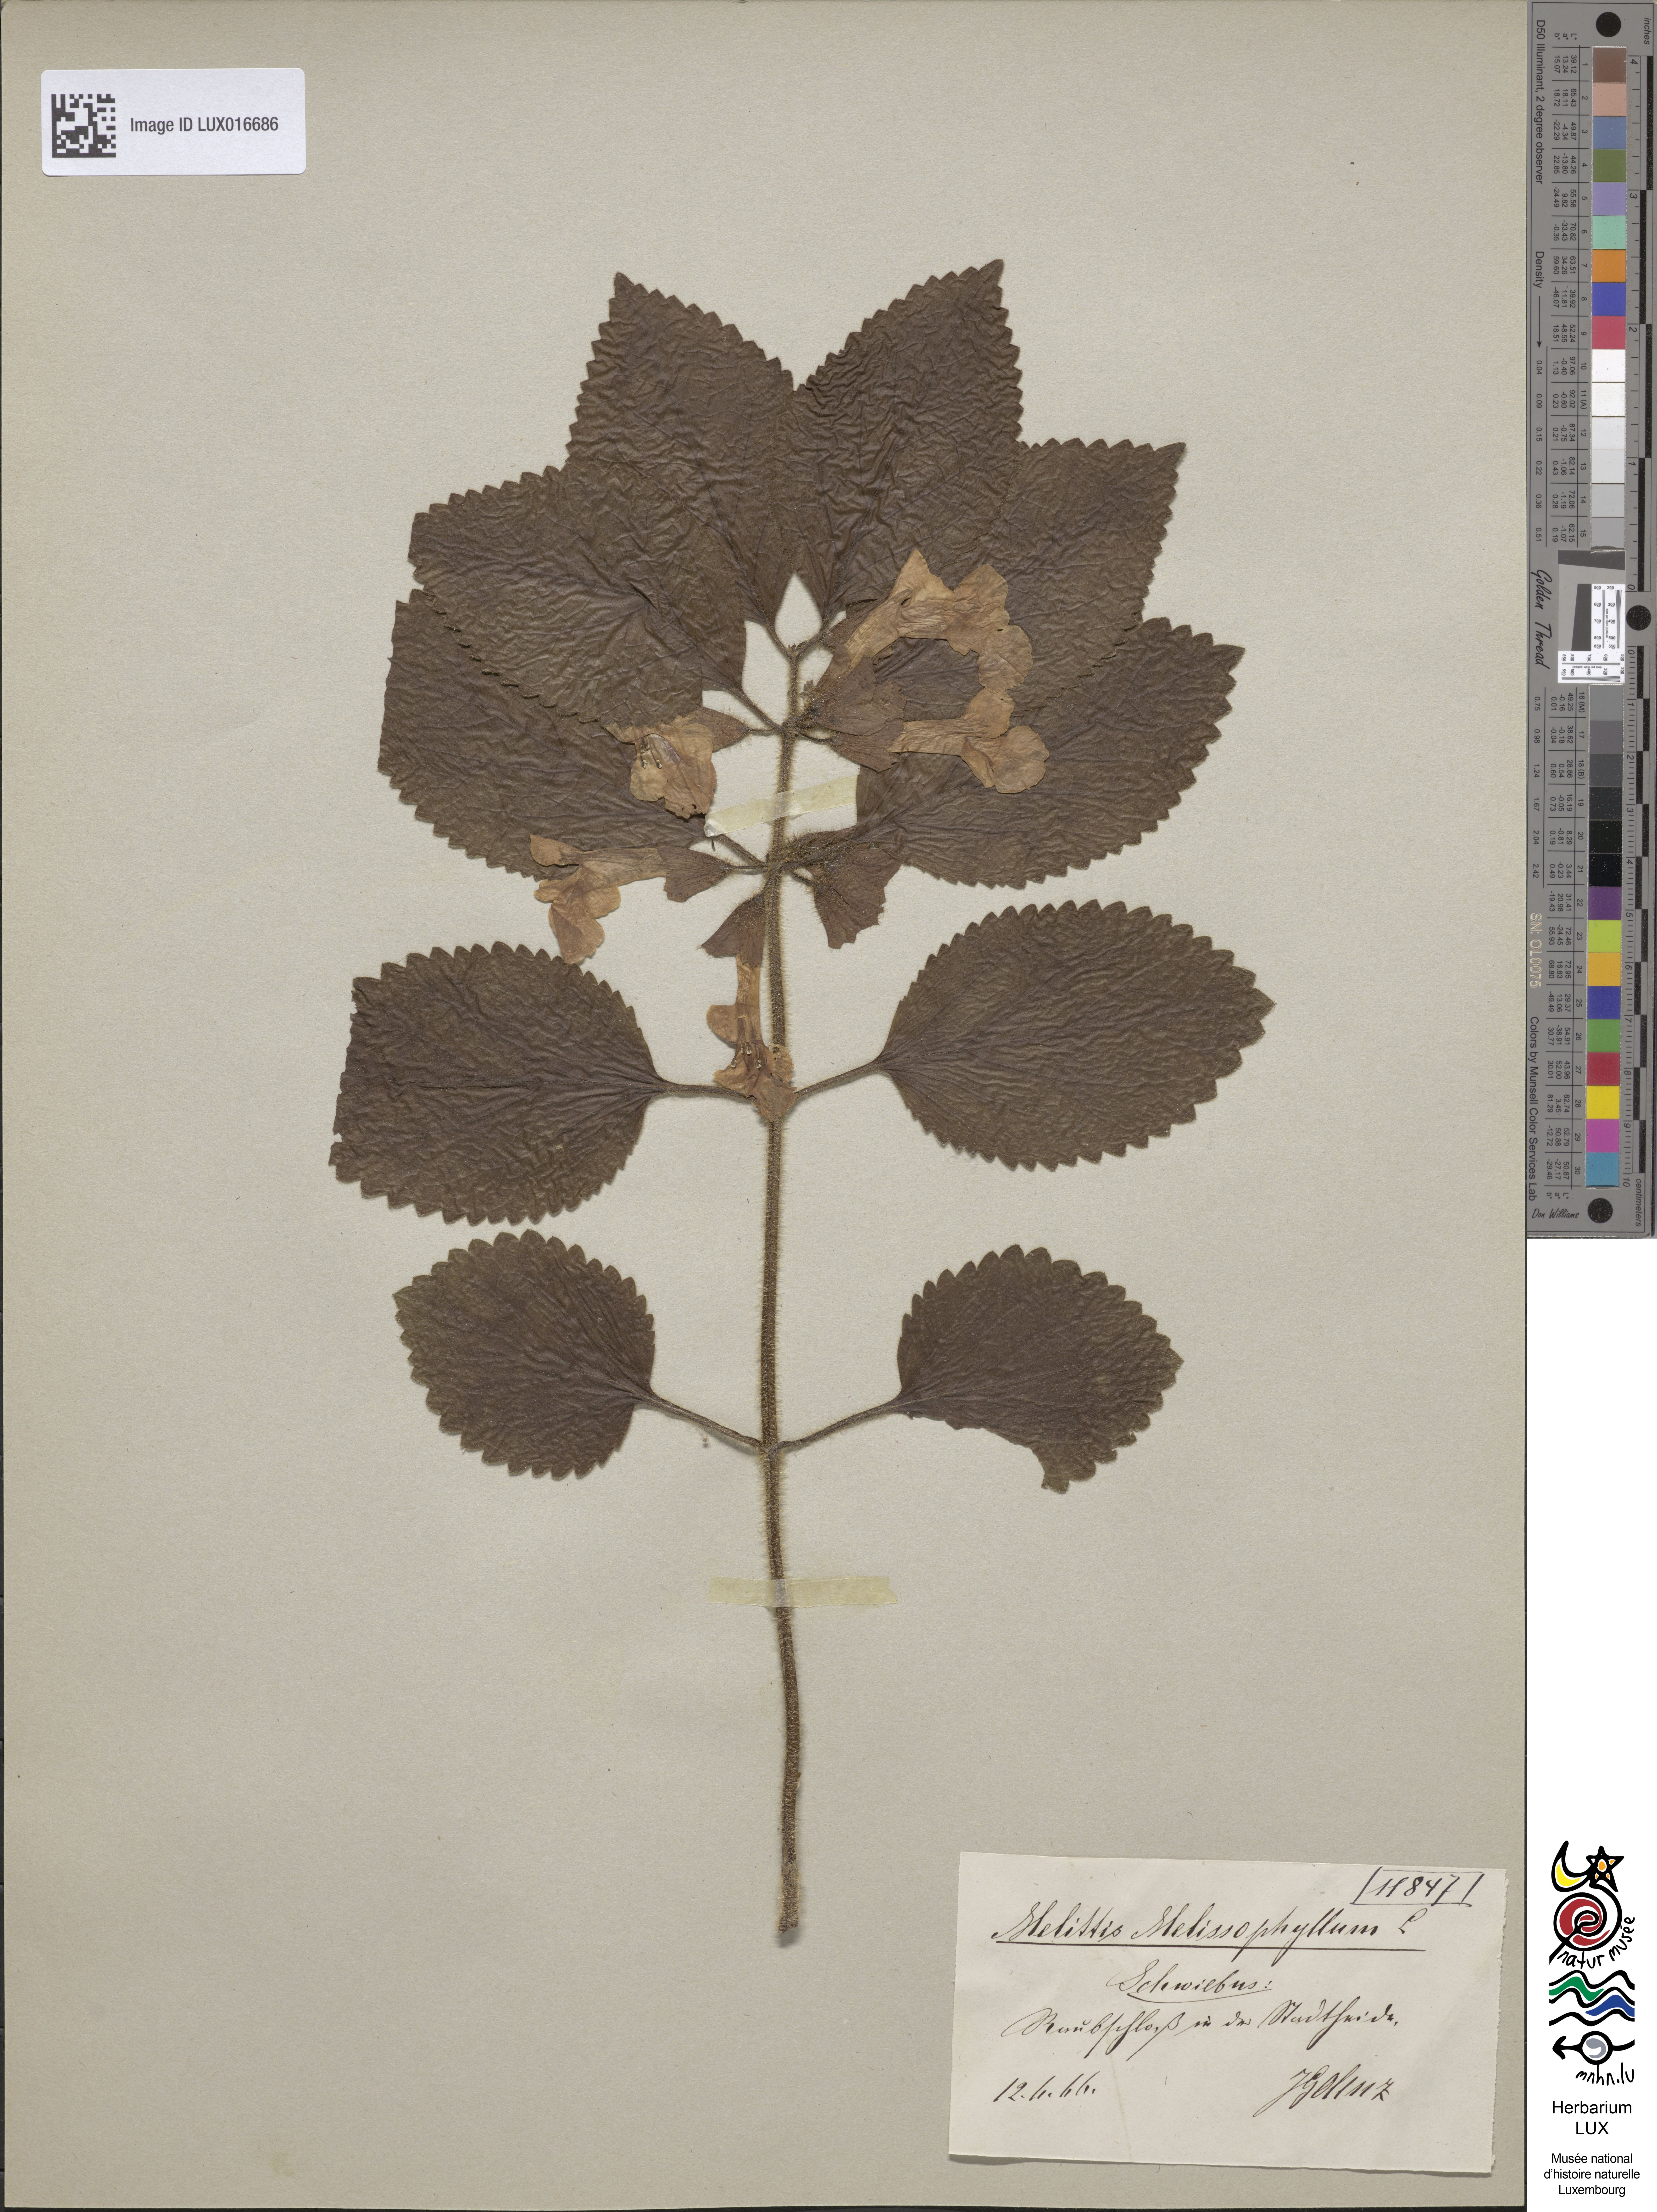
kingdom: Plantae
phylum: Tracheophyta
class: Magnoliopsida
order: Lamiales
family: Lamiaceae
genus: Melittis
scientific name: Melittis melissophyllum
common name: Bastard balm
